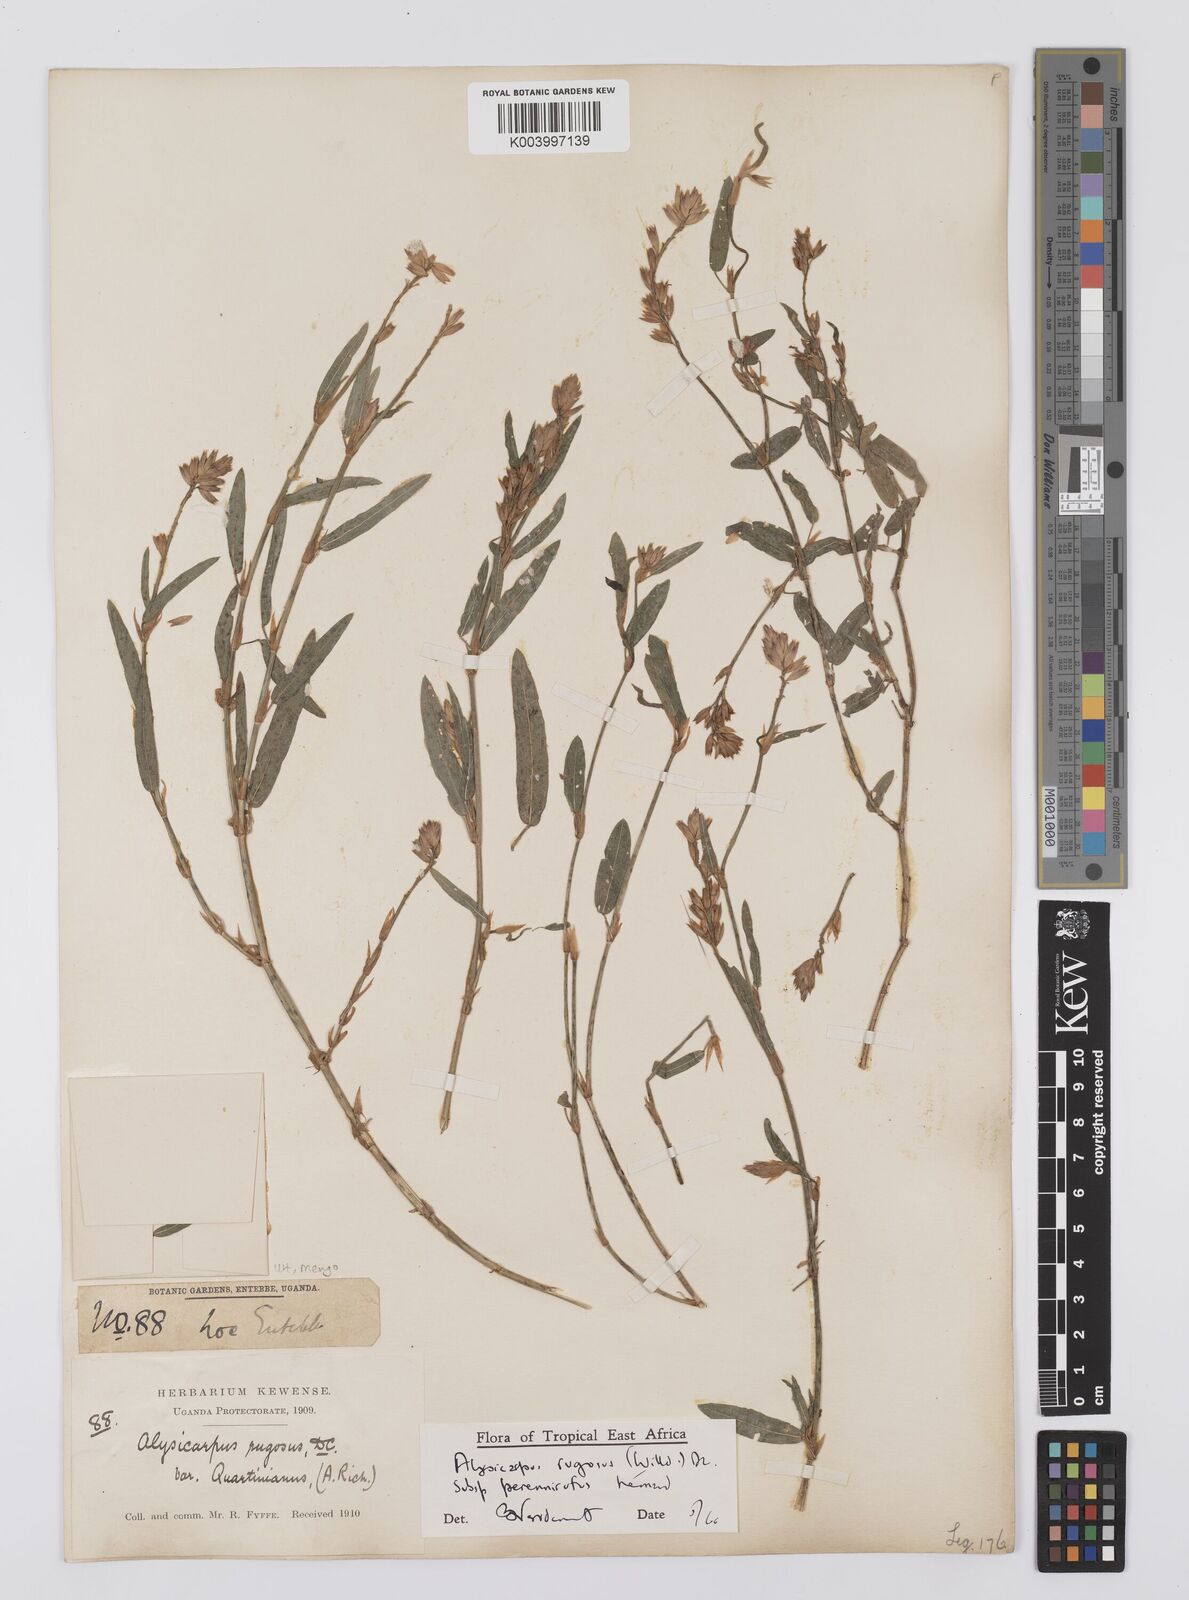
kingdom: Plantae
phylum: Tracheophyta
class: Magnoliopsida
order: Fabales
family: Fabaceae
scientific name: Fabaceae
